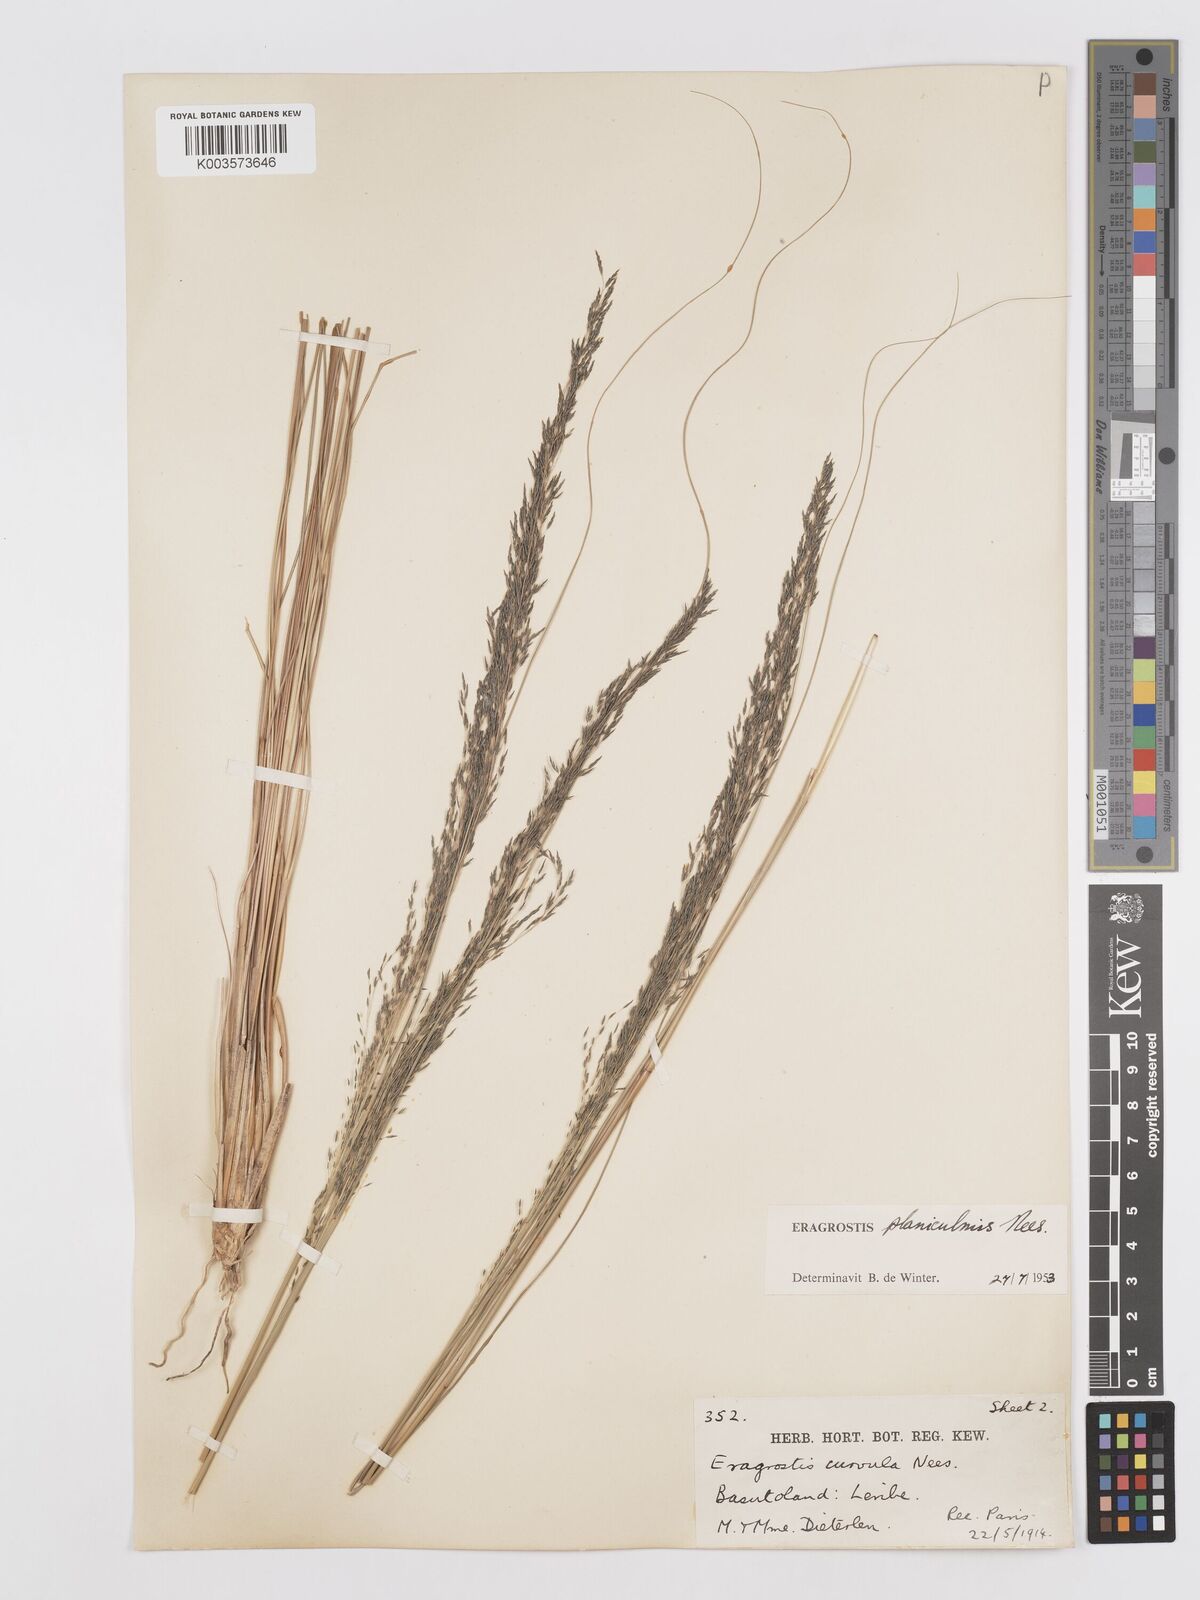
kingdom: Plantae
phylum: Tracheophyta
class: Liliopsida
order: Poales
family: Poaceae
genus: Eragrostis
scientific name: Eragrostis planiculmis
